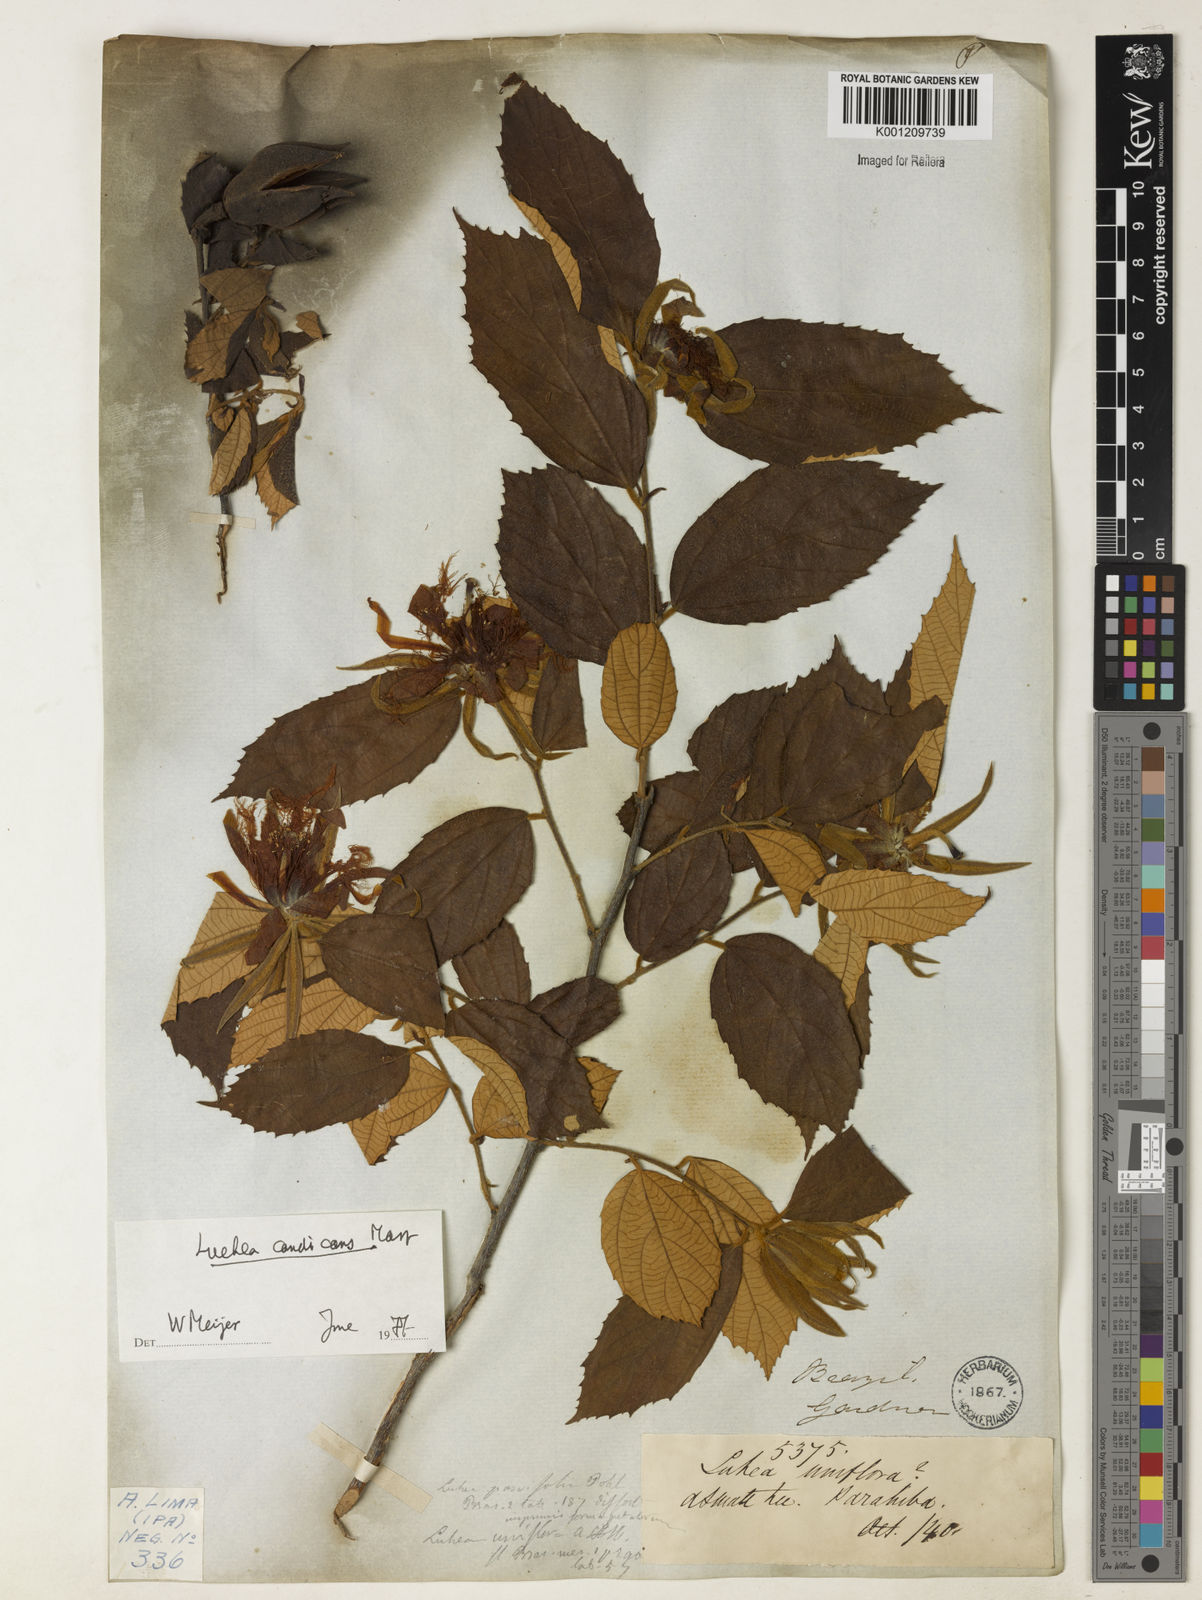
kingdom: Plantae
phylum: Tracheophyta
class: Magnoliopsida
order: Malvales
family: Malvaceae
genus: Luehea
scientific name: Luehea candicans
